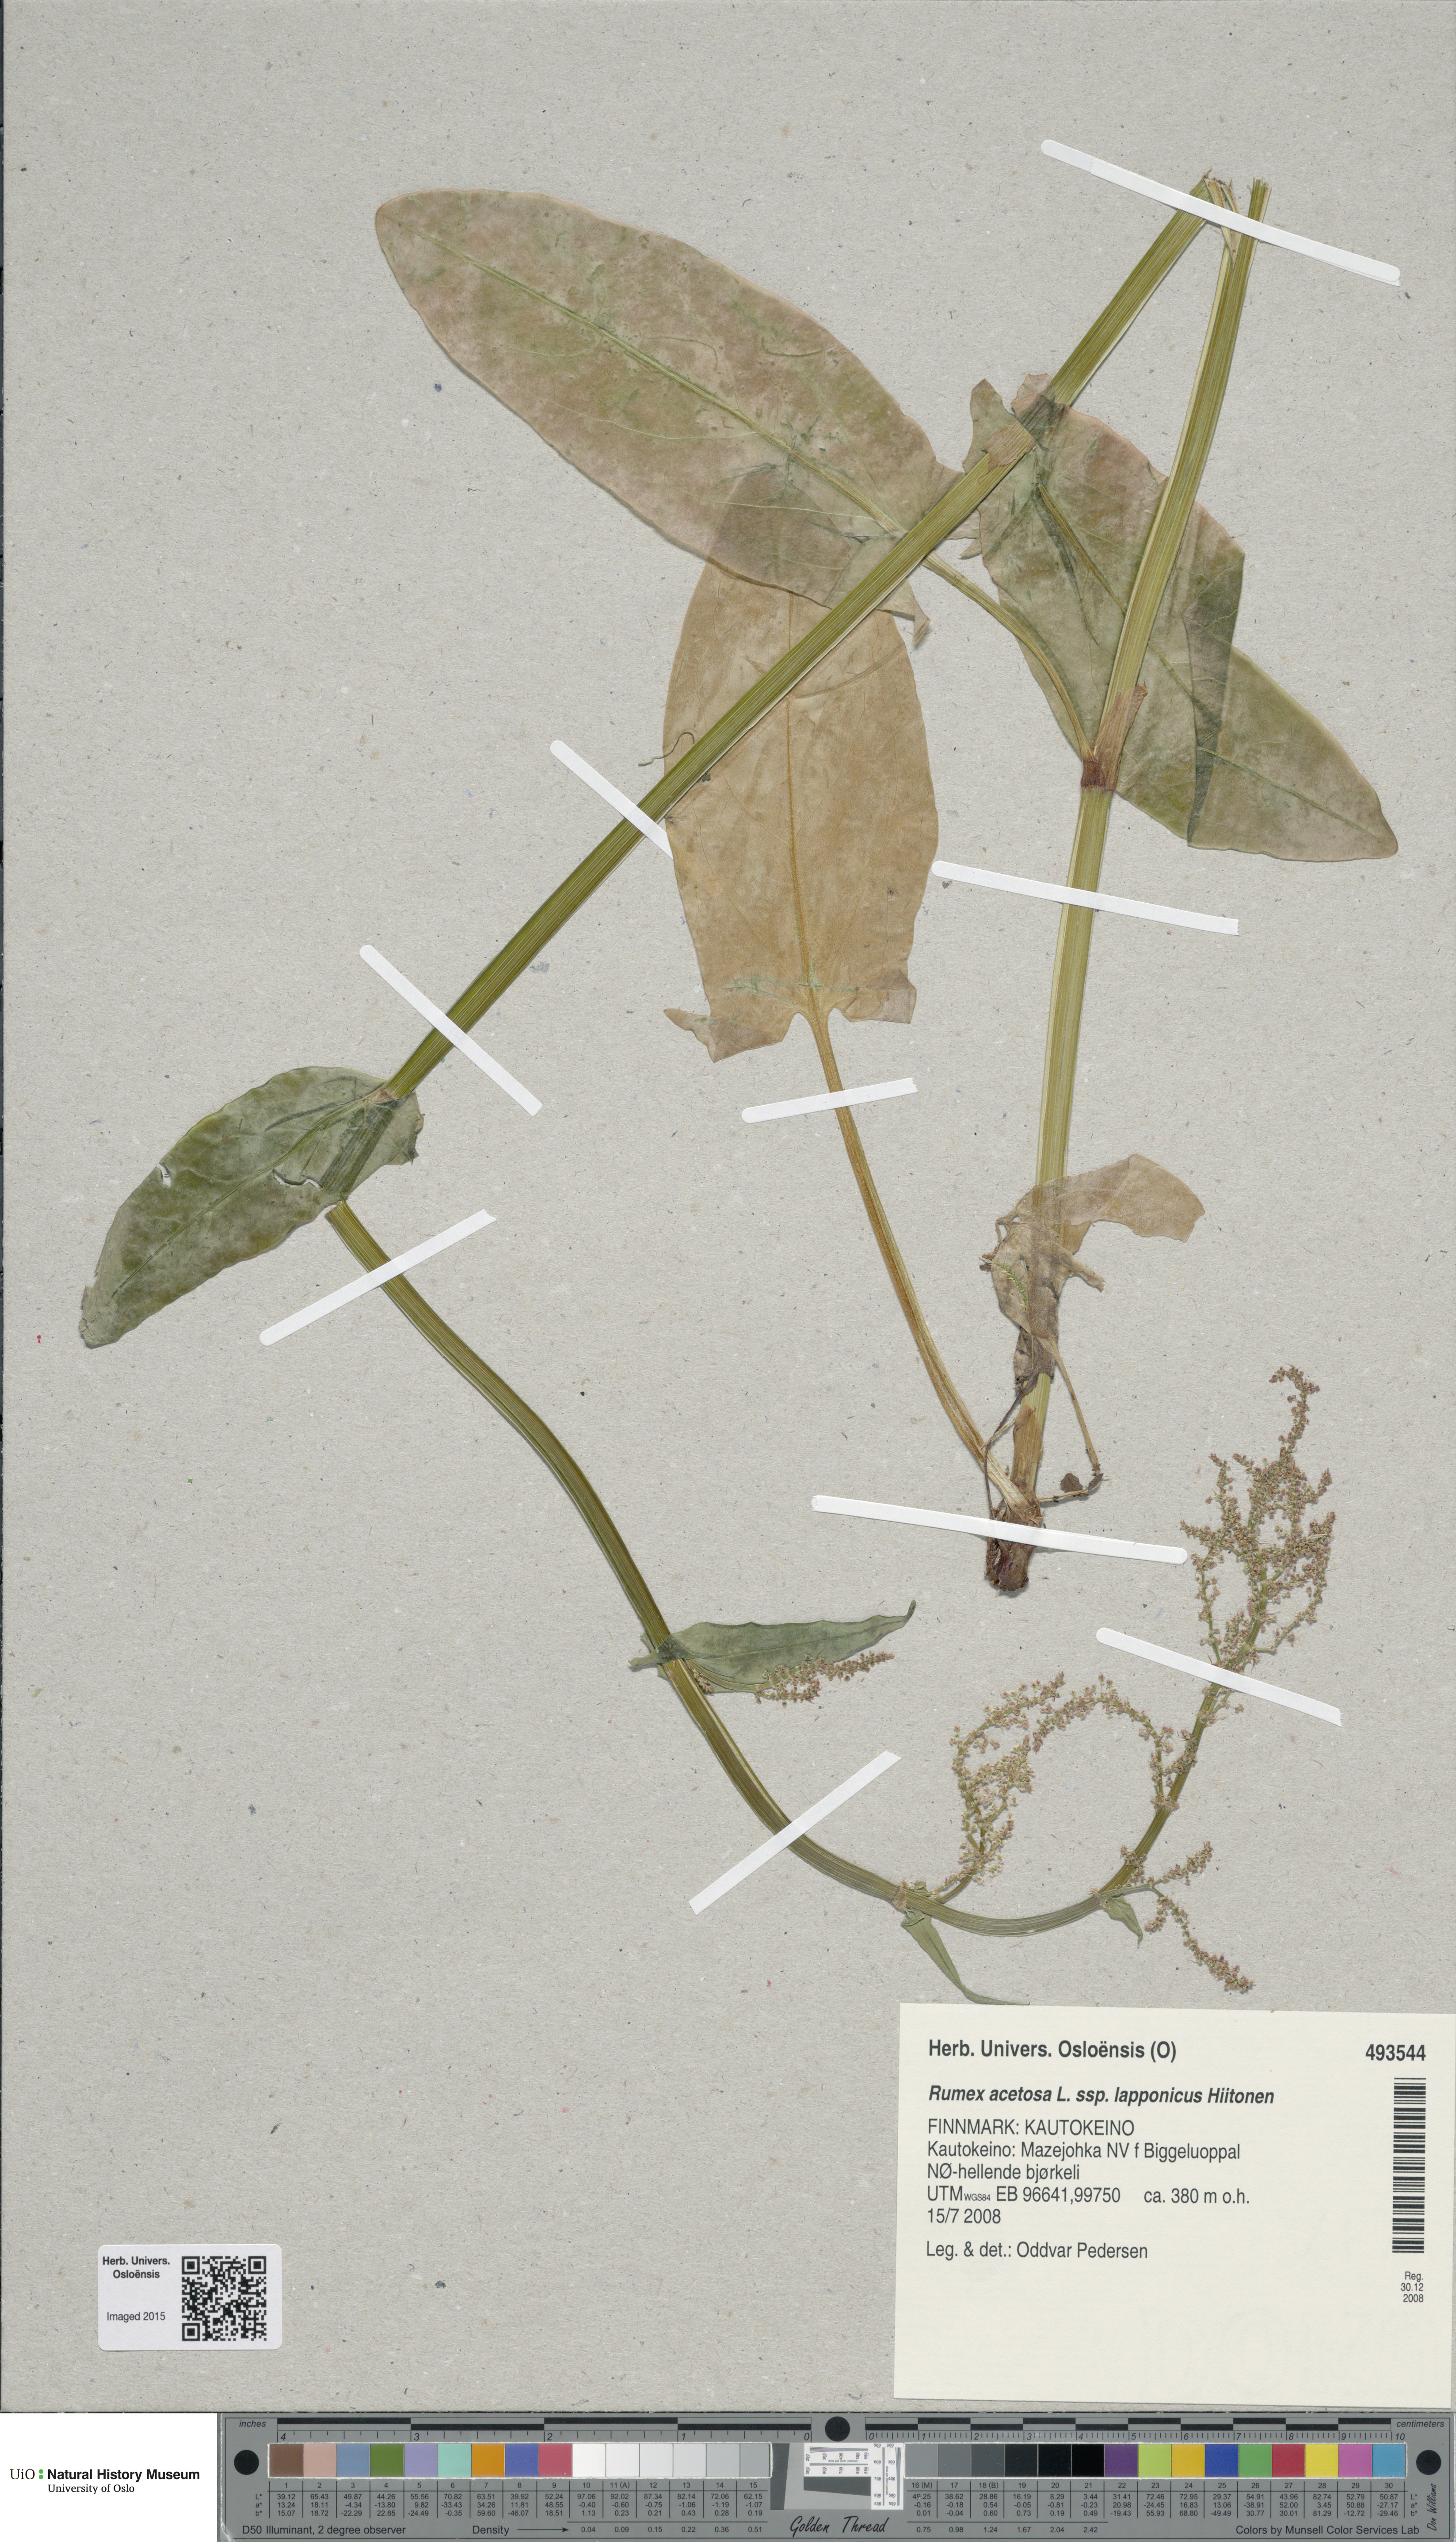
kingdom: Plantae
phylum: Tracheophyta
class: Magnoliopsida
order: Caryophyllales
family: Polygonaceae
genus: Rumex
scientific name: Rumex lapponicus
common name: Lapland mountain sorrel
